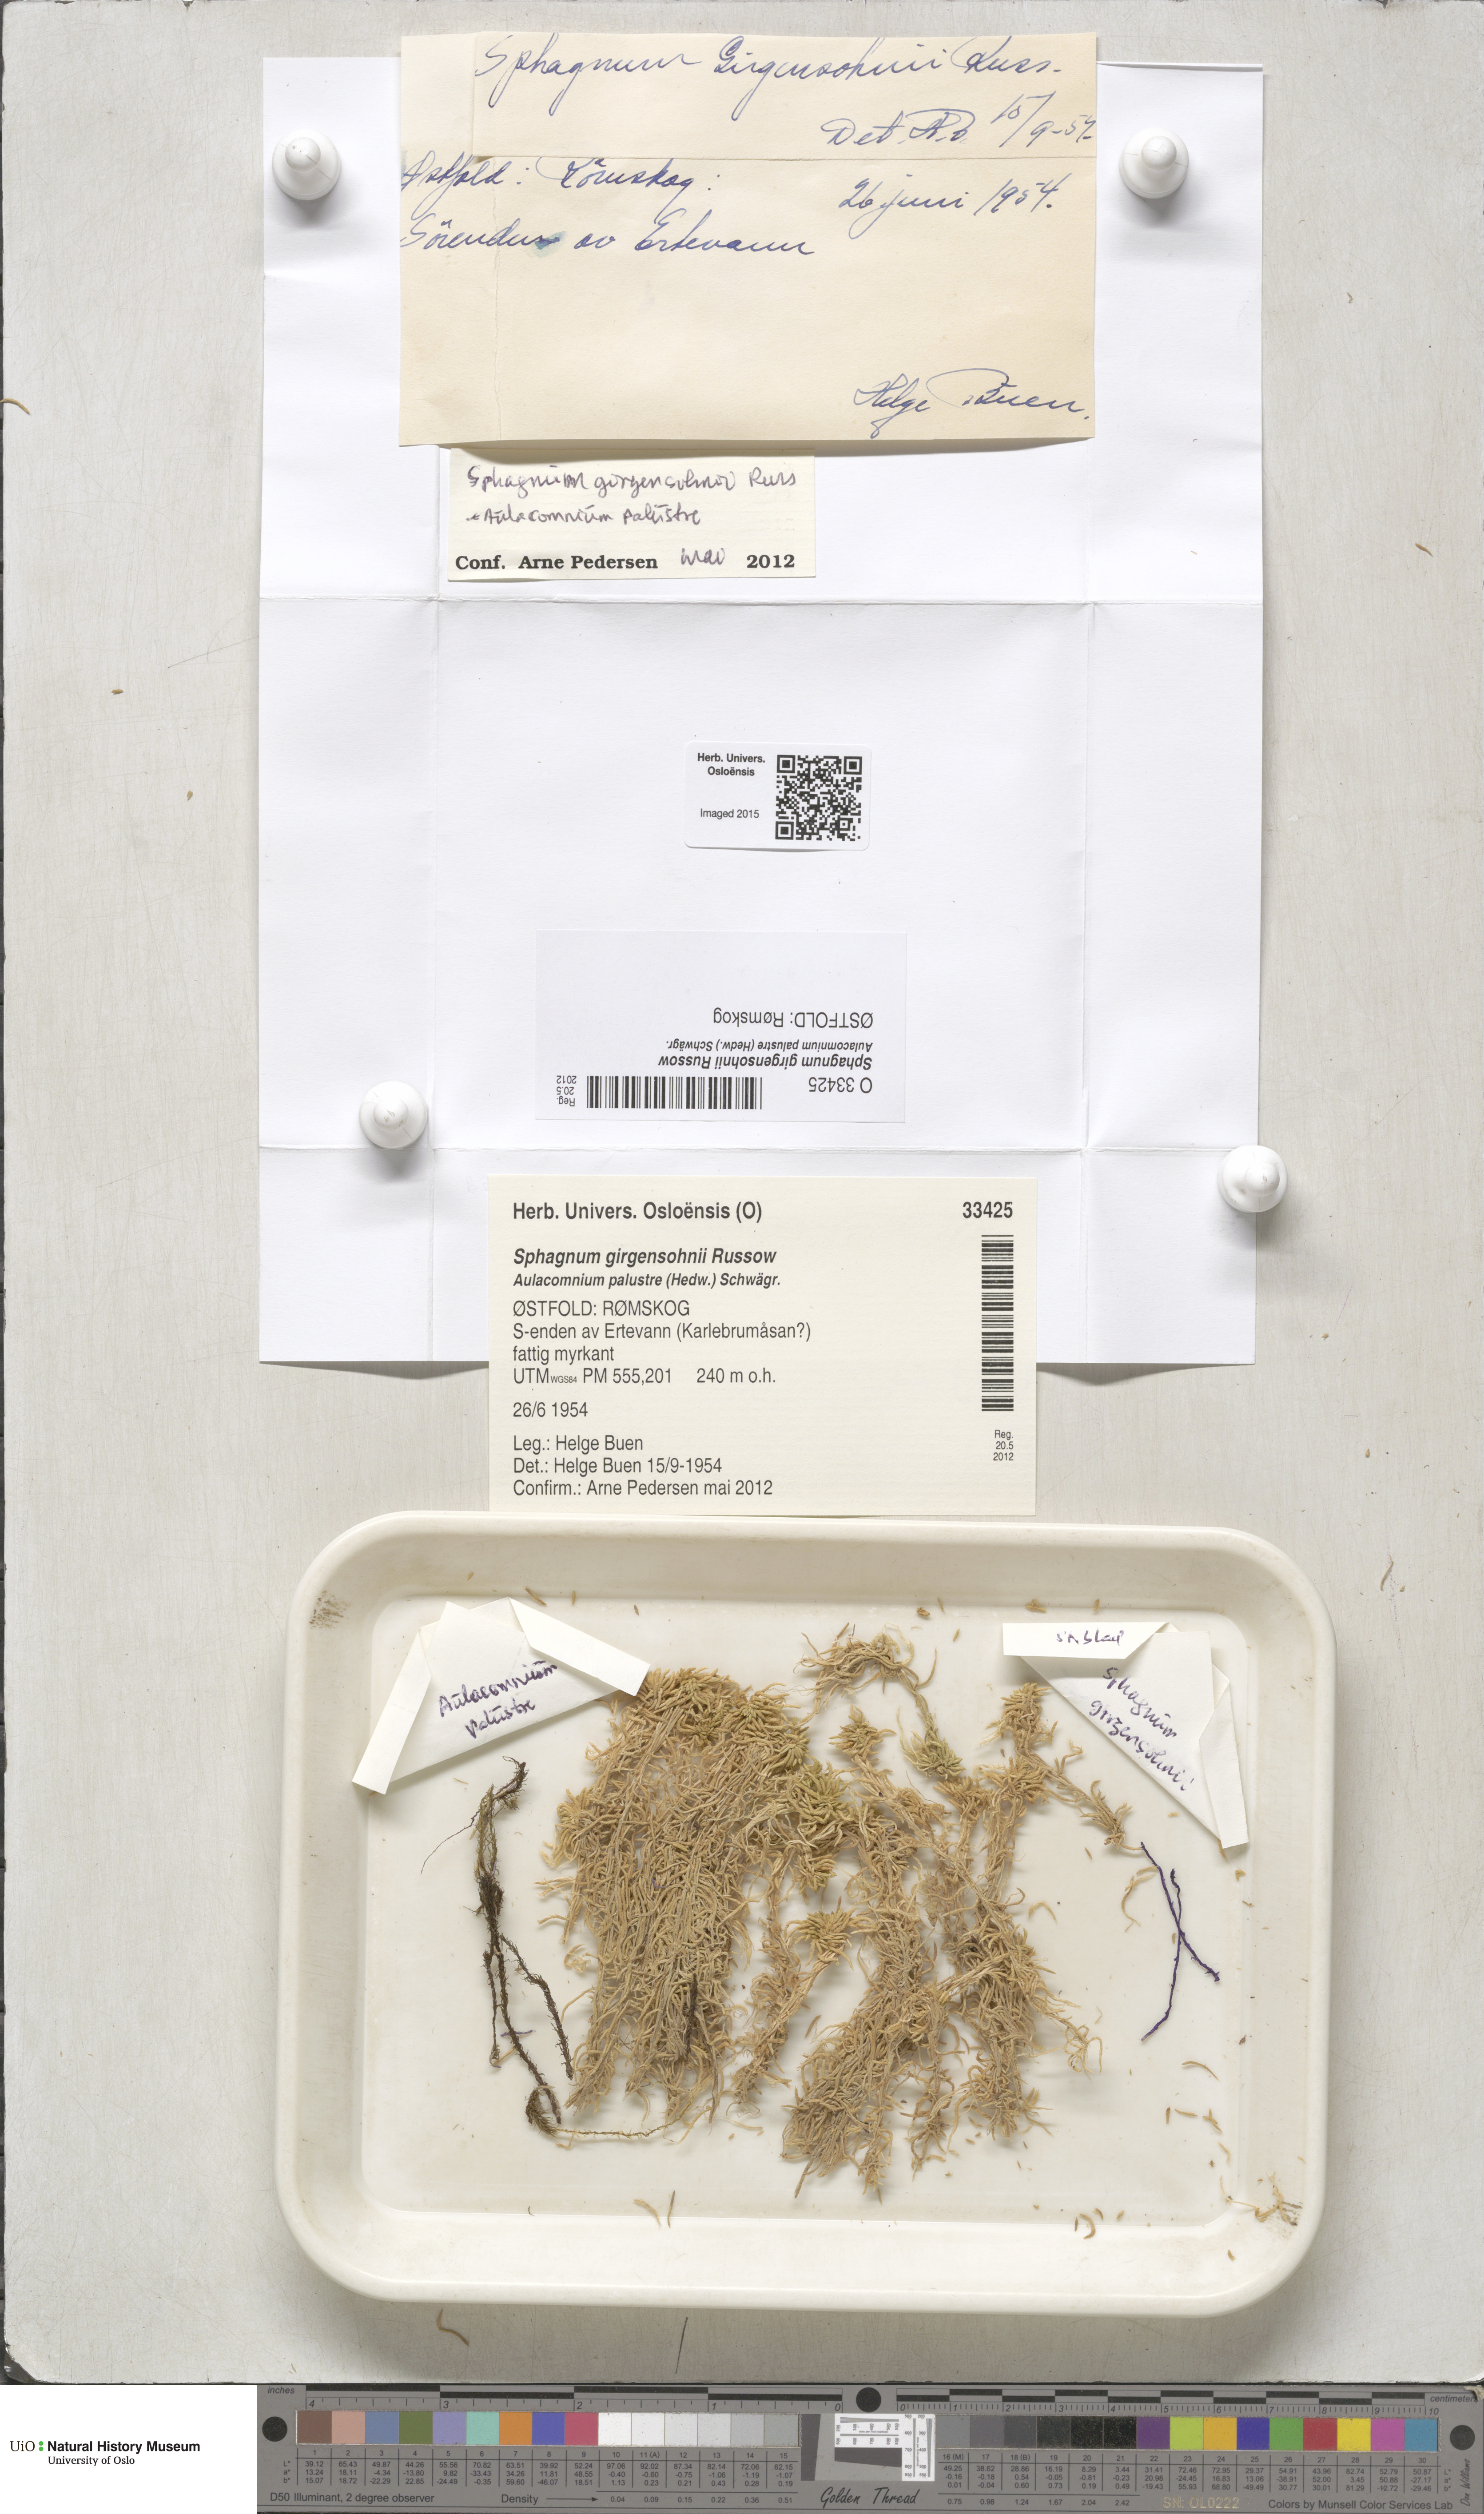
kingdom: Plantae
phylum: Bryophyta
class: Sphagnopsida
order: Sphagnales
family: Sphagnaceae
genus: Sphagnum
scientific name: Sphagnum girgensohnii
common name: Girgensohn's peat moss
